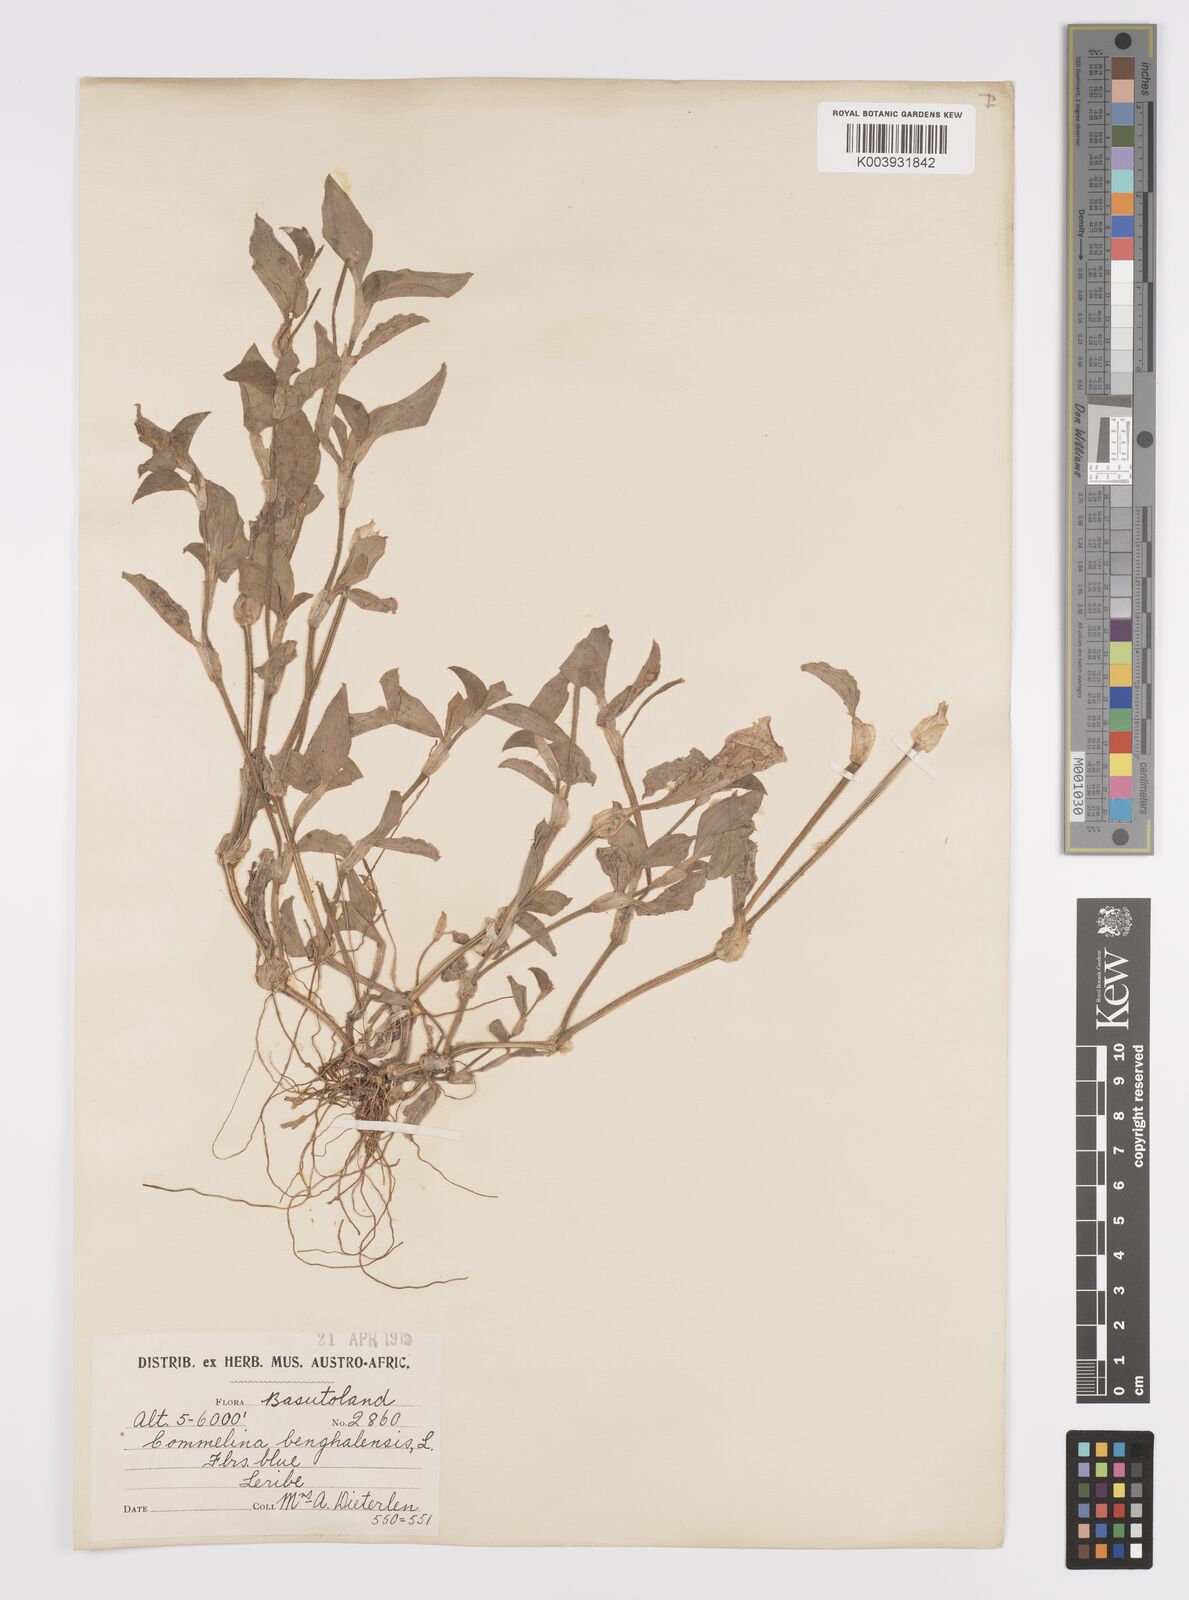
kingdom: Plantae
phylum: Tracheophyta
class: Liliopsida
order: Commelinales
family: Commelinaceae
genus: Commelina
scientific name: Commelina benghalensis
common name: Jio
